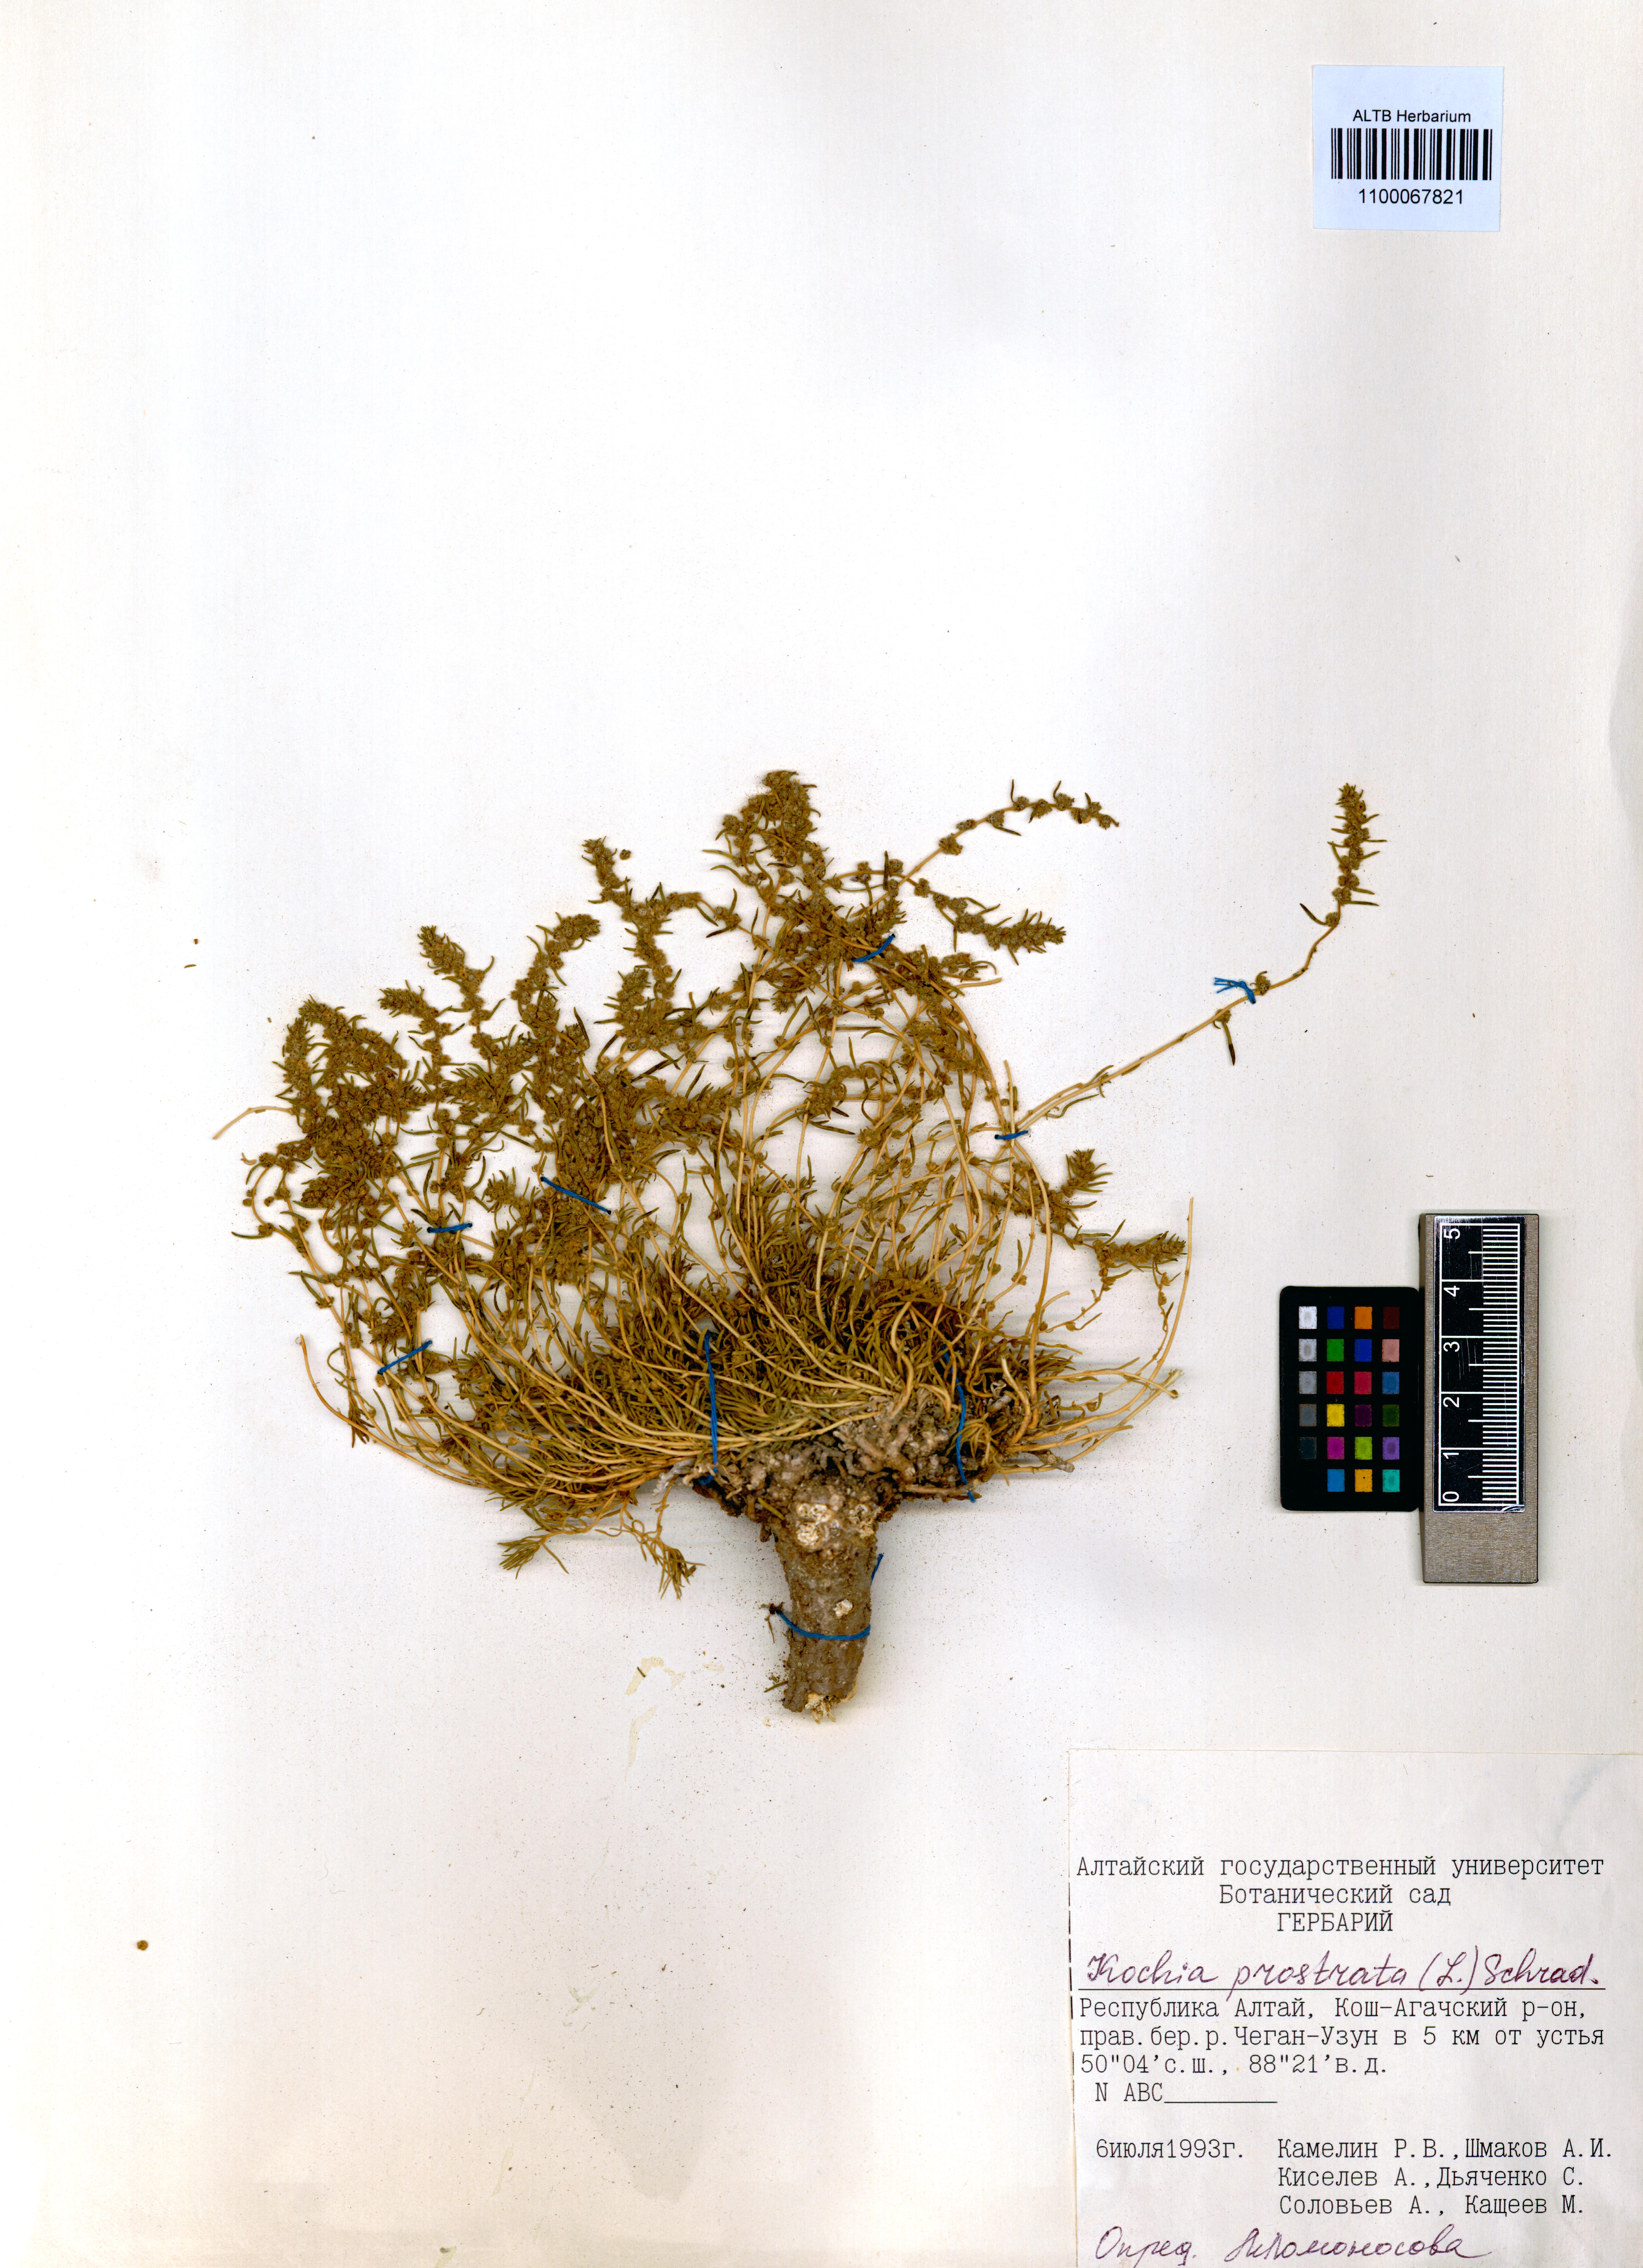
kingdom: Plantae
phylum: Tracheophyta
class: Magnoliopsida
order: Caryophyllales
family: Amaranthaceae
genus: Bassia
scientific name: Bassia prostrata
